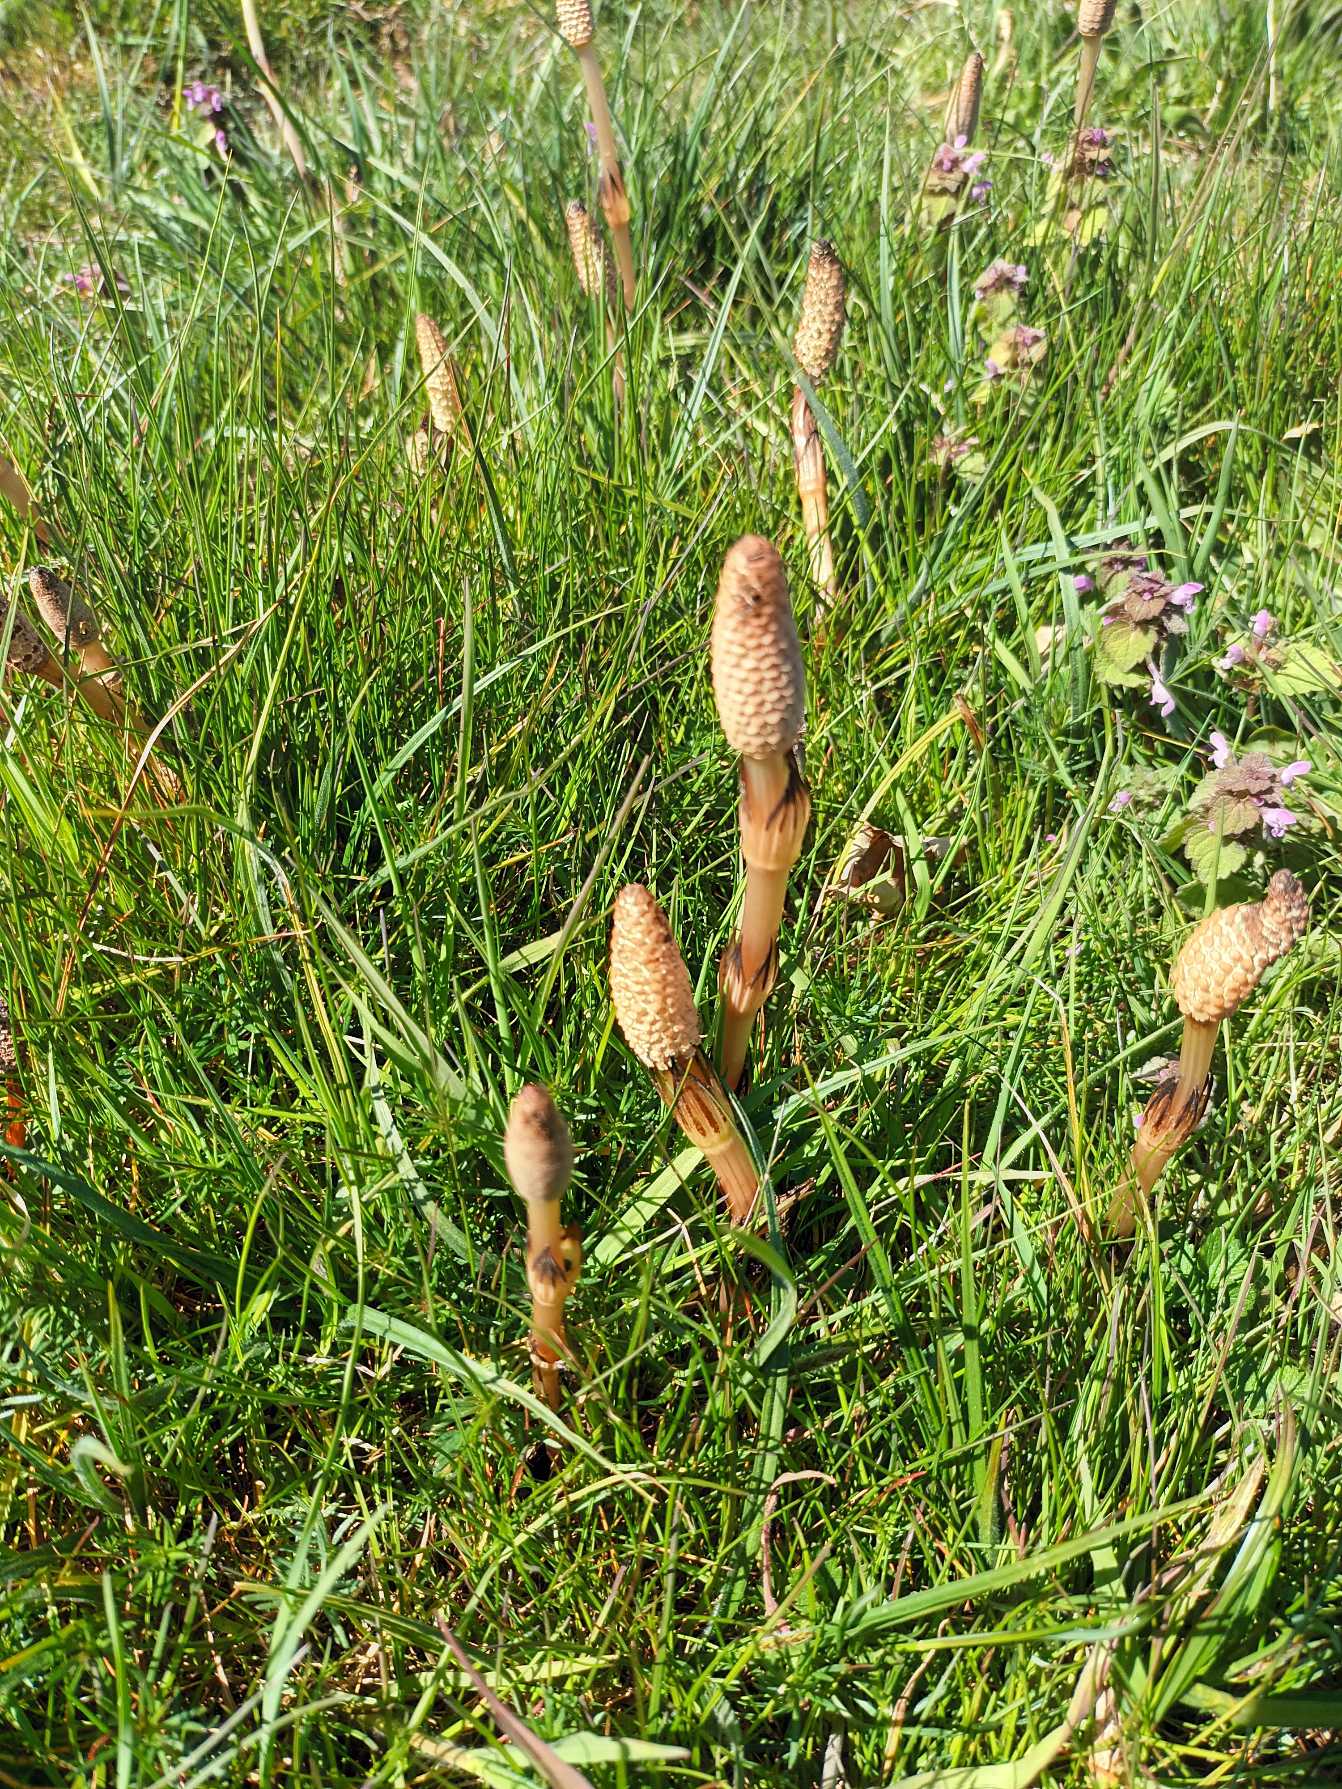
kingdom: Plantae
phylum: Tracheophyta
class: Polypodiopsida
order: Equisetales
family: Equisetaceae
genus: Equisetum
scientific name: Equisetum arvense
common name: Ager-padderok
